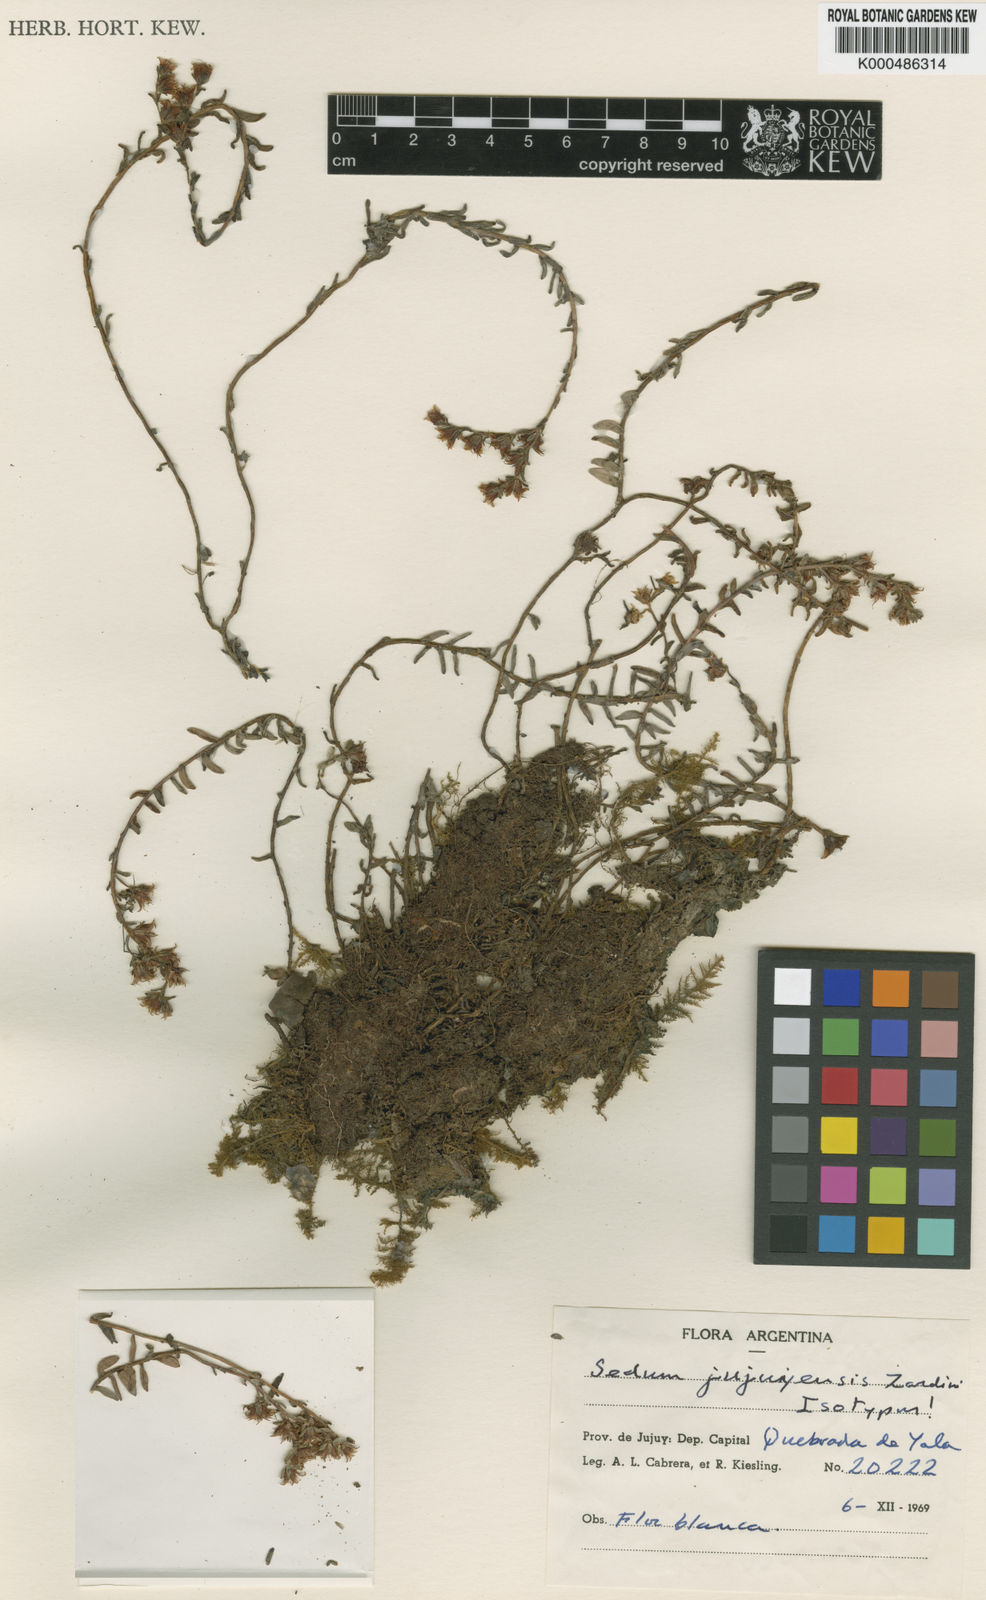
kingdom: Plantae
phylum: Tracheophyta
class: Magnoliopsida
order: Saxifragales
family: Crassulaceae
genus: Sedum
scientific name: Sedum jujuyense
